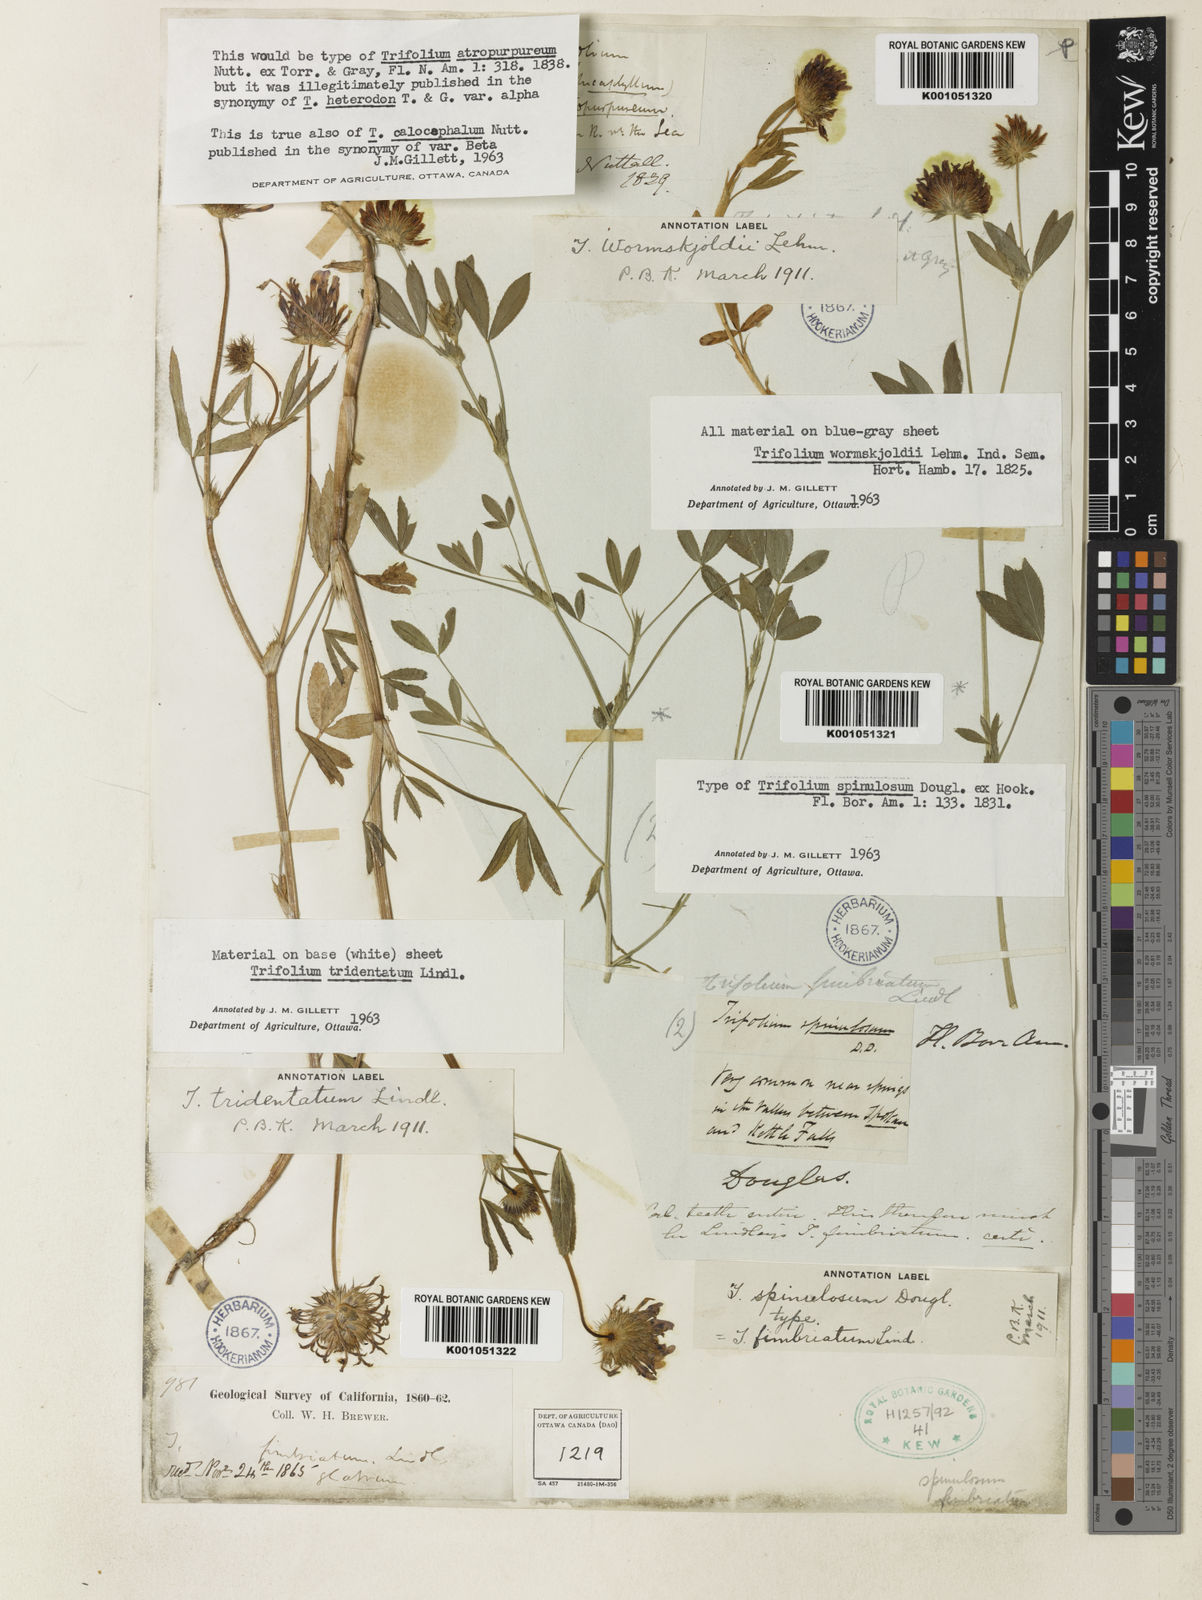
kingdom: Plantae
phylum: Tracheophyta
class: Magnoliopsida
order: Fabales
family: Fabaceae
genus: Trifolium
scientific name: Trifolium willdenovii
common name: Tomcat clover
